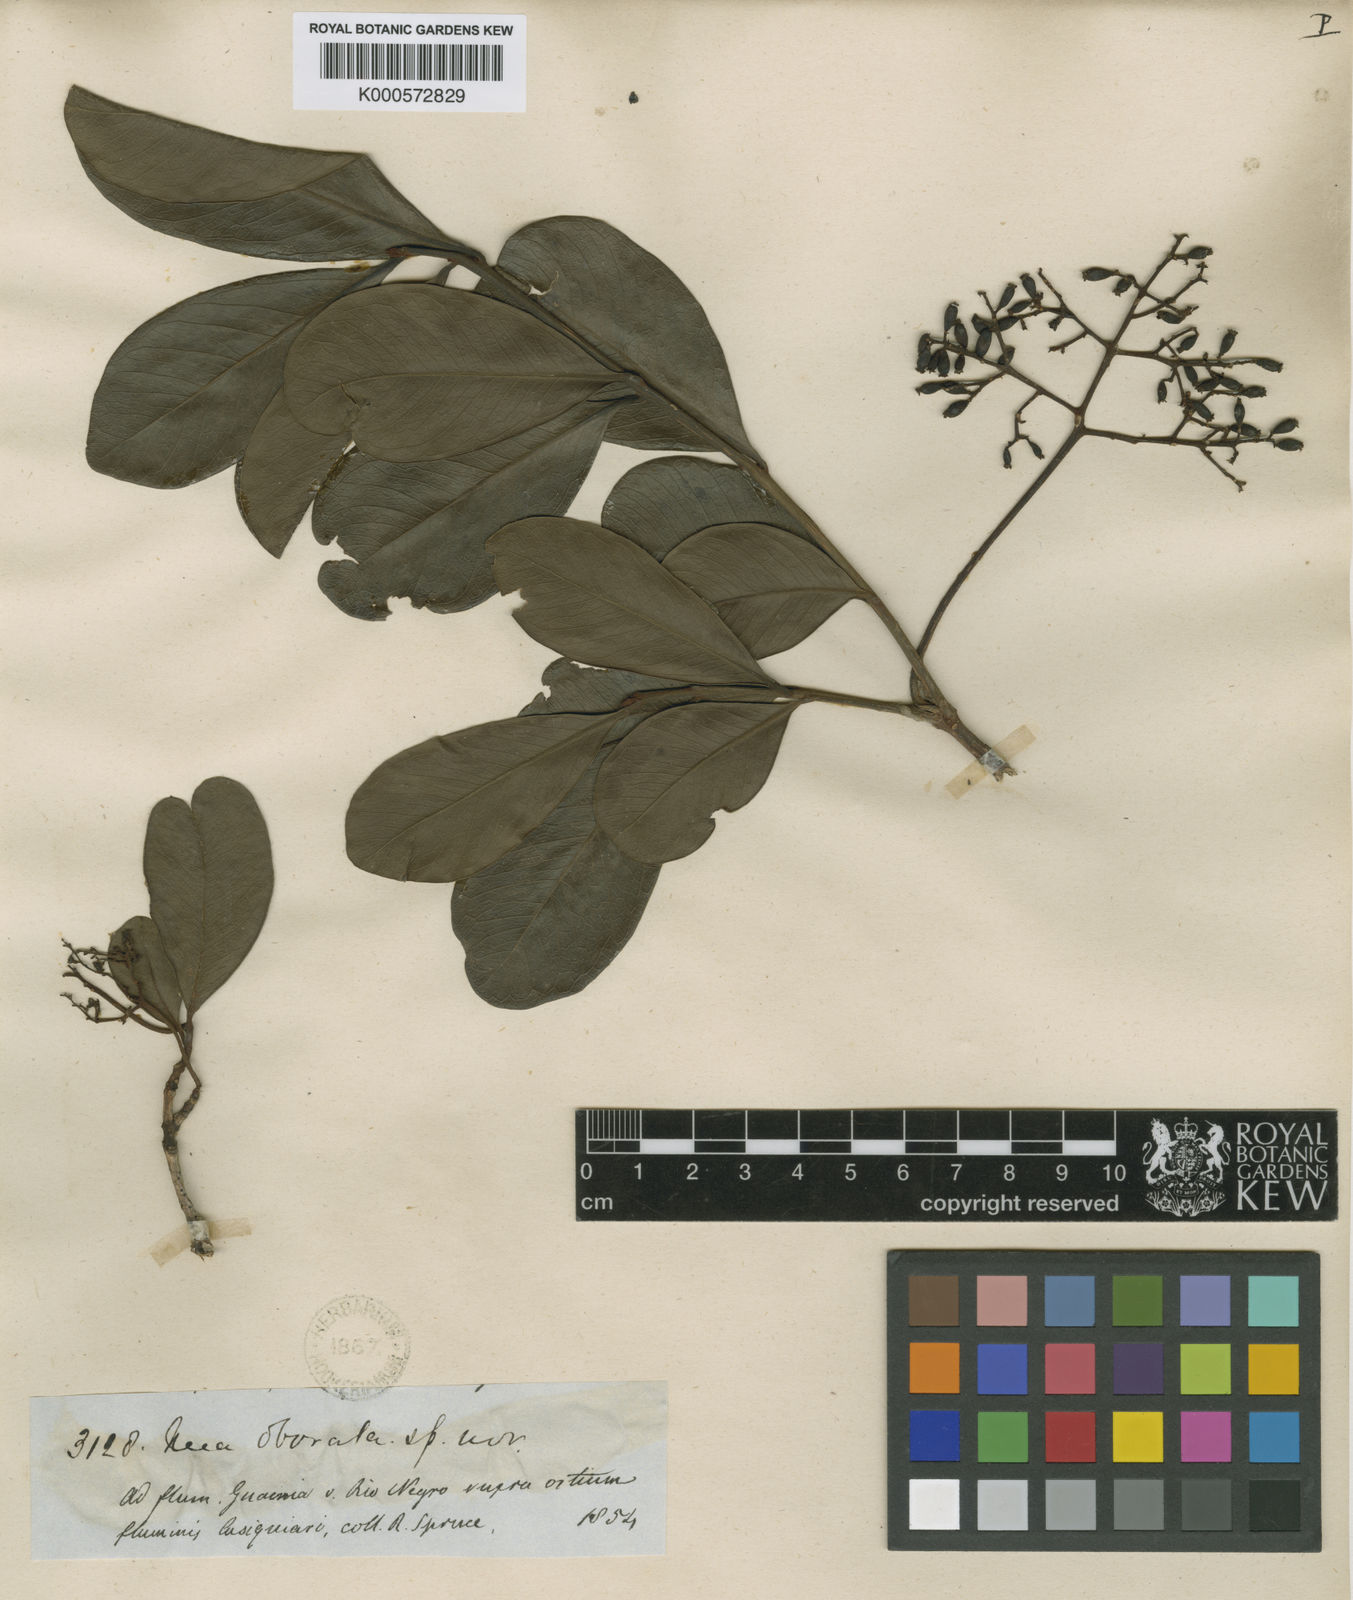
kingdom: Plantae
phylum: Tracheophyta
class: Magnoliopsida
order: Caryophyllales
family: Nyctaginaceae
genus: Neea
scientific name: Neea obovata
